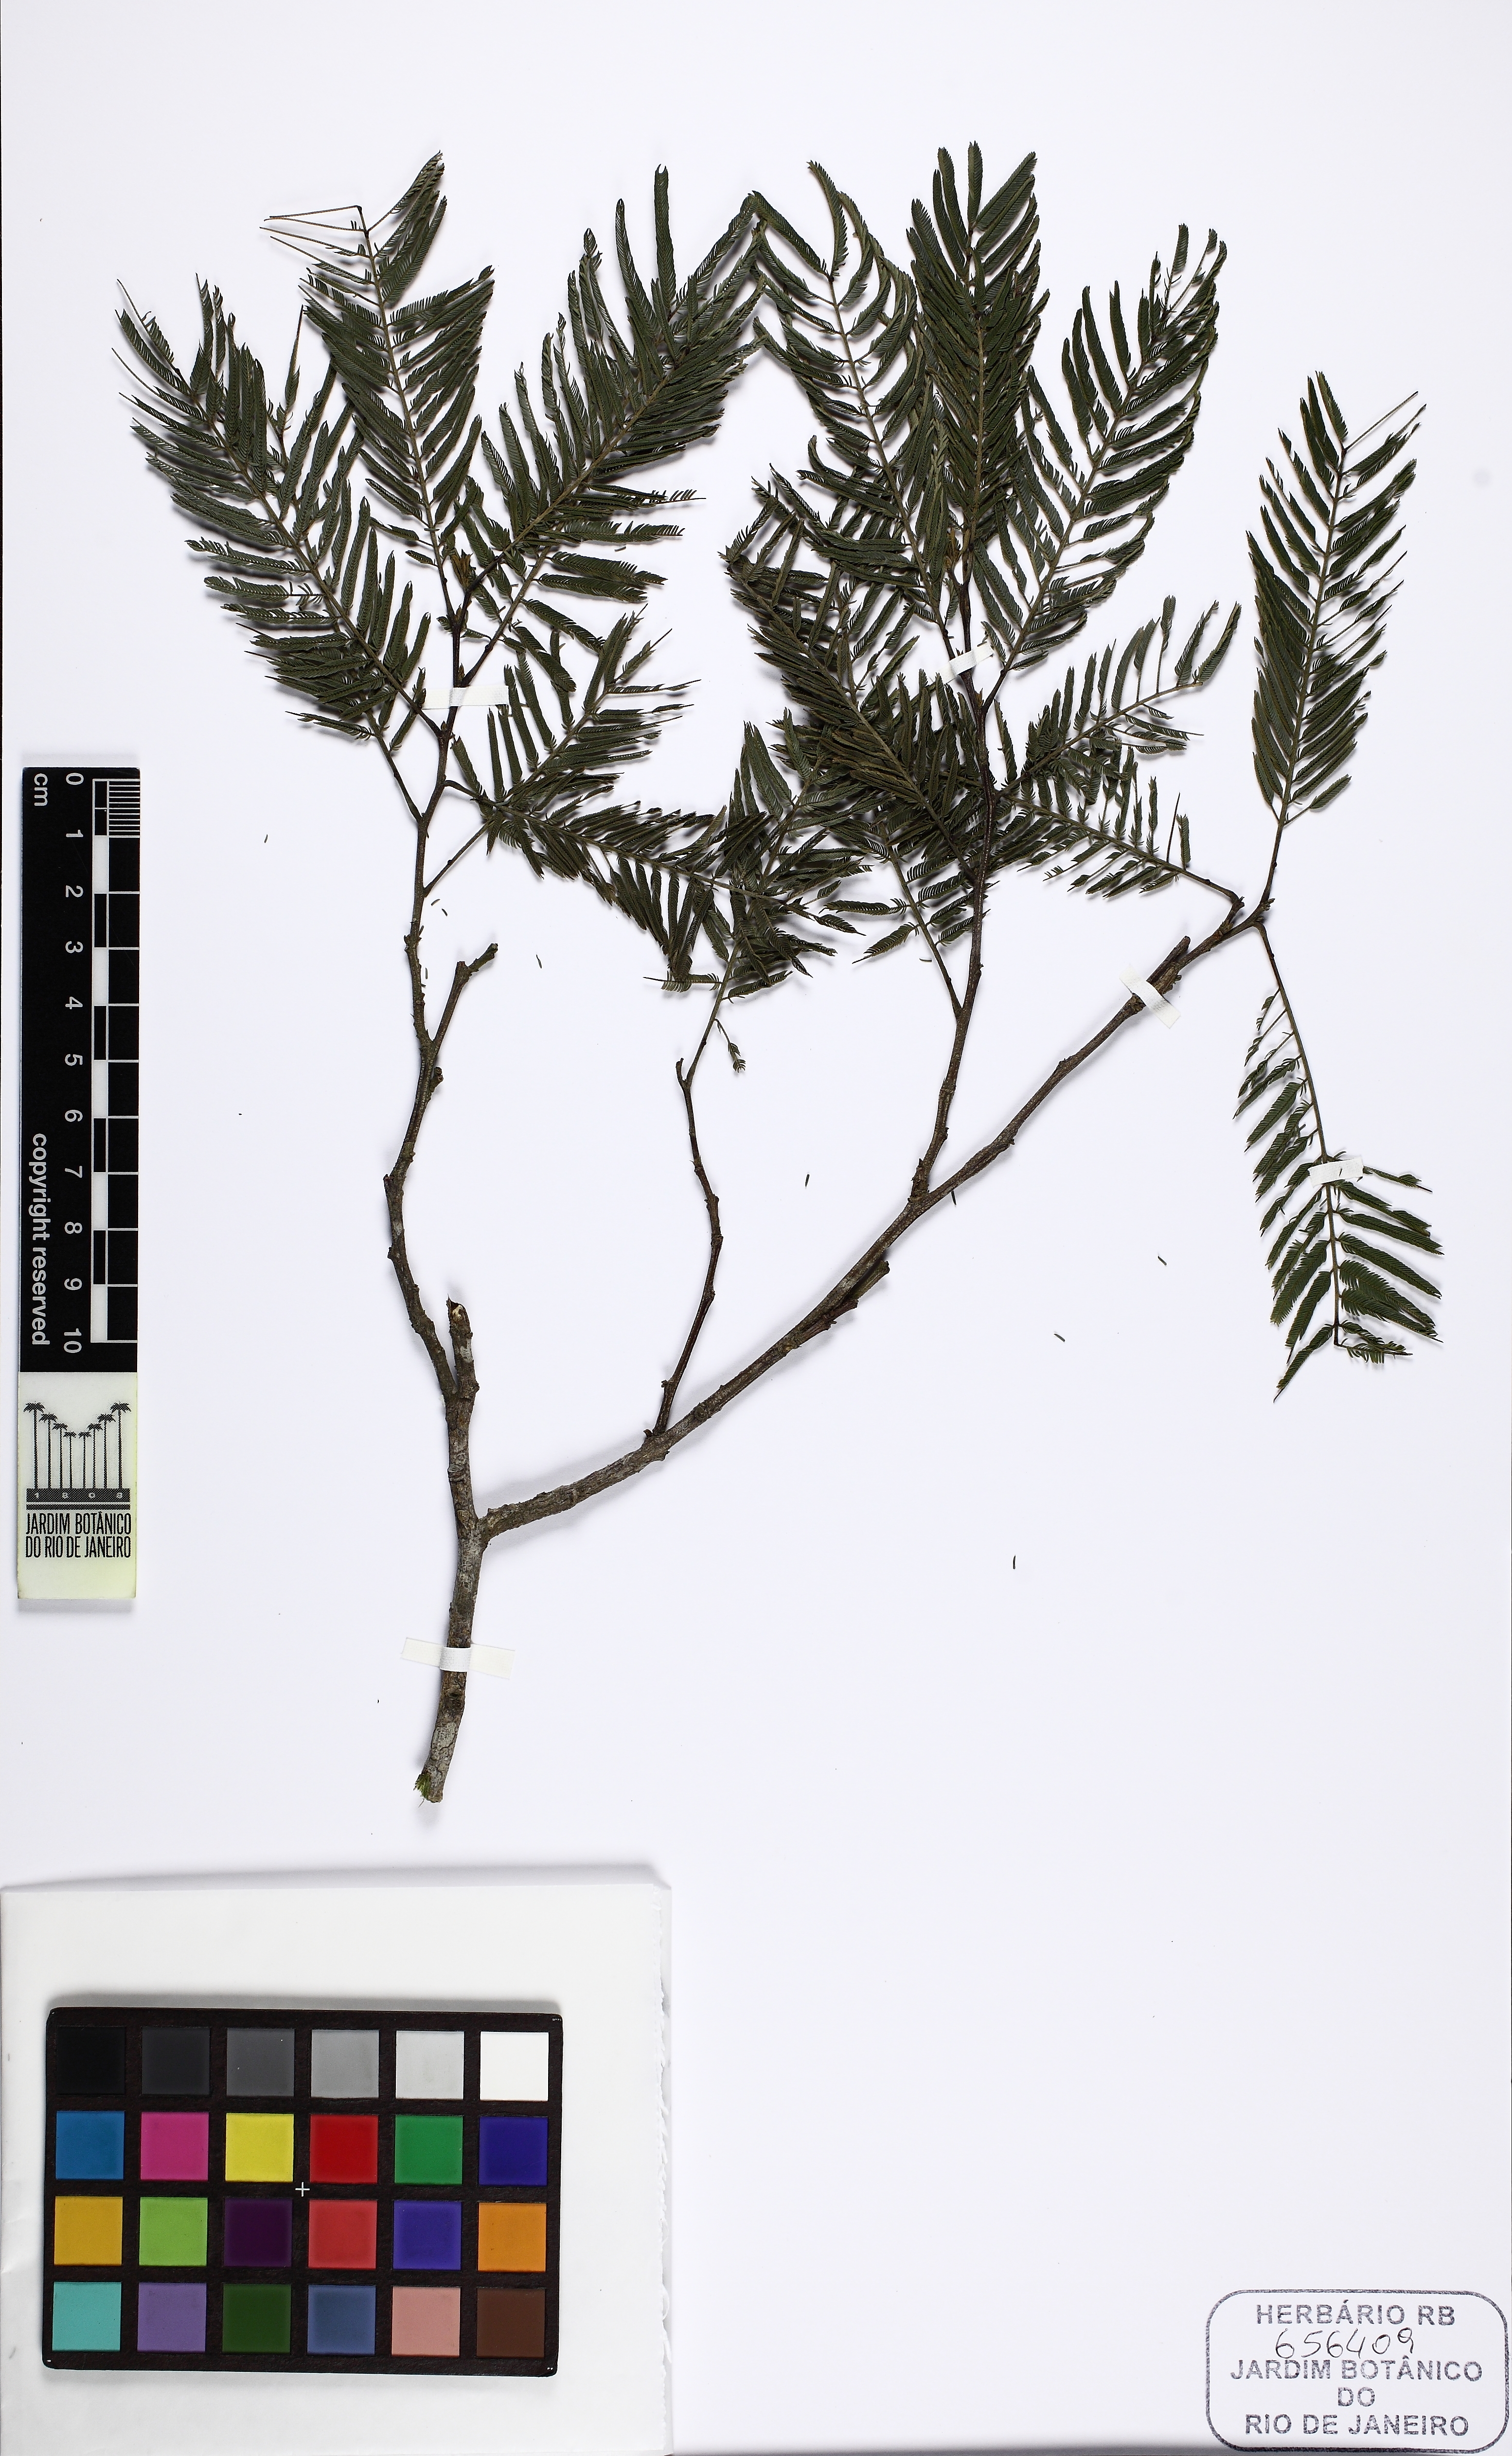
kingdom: Plantae
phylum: Tracheophyta
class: Magnoliopsida
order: Fabales
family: Fabaceae
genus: Pseudopiptadenia
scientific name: Pseudopiptadenia contorta
